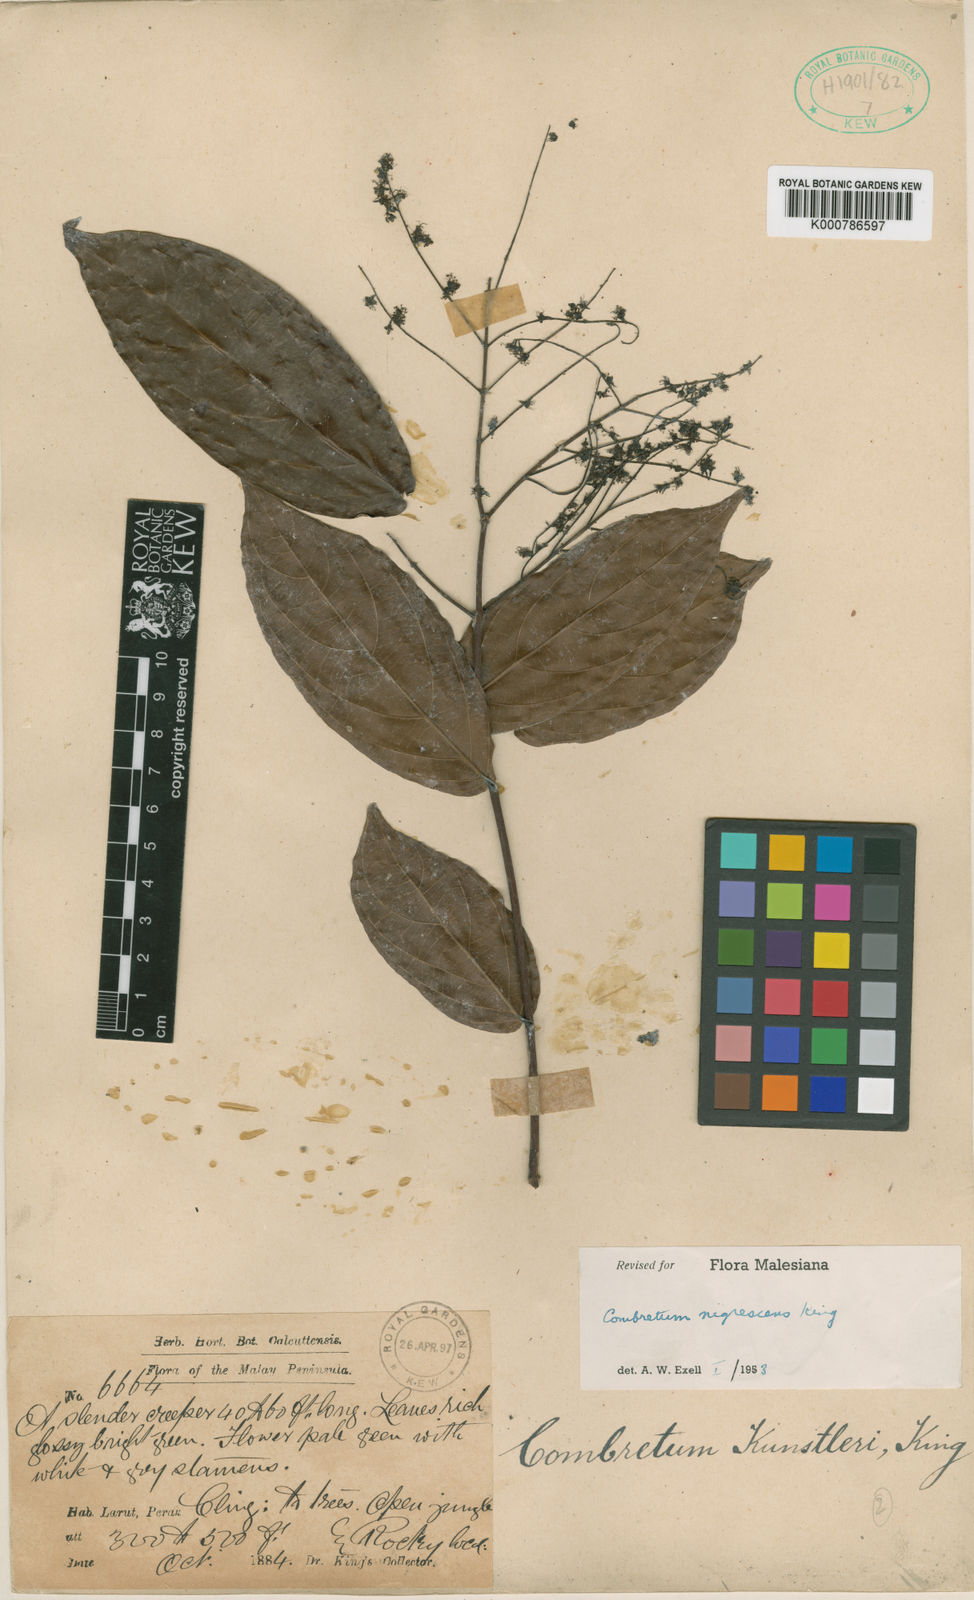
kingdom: Plantae
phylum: Tracheophyta
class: Magnoliopsida
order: Myrtales
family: Combretaceae
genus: Combretum
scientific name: Combretum nigrescens
